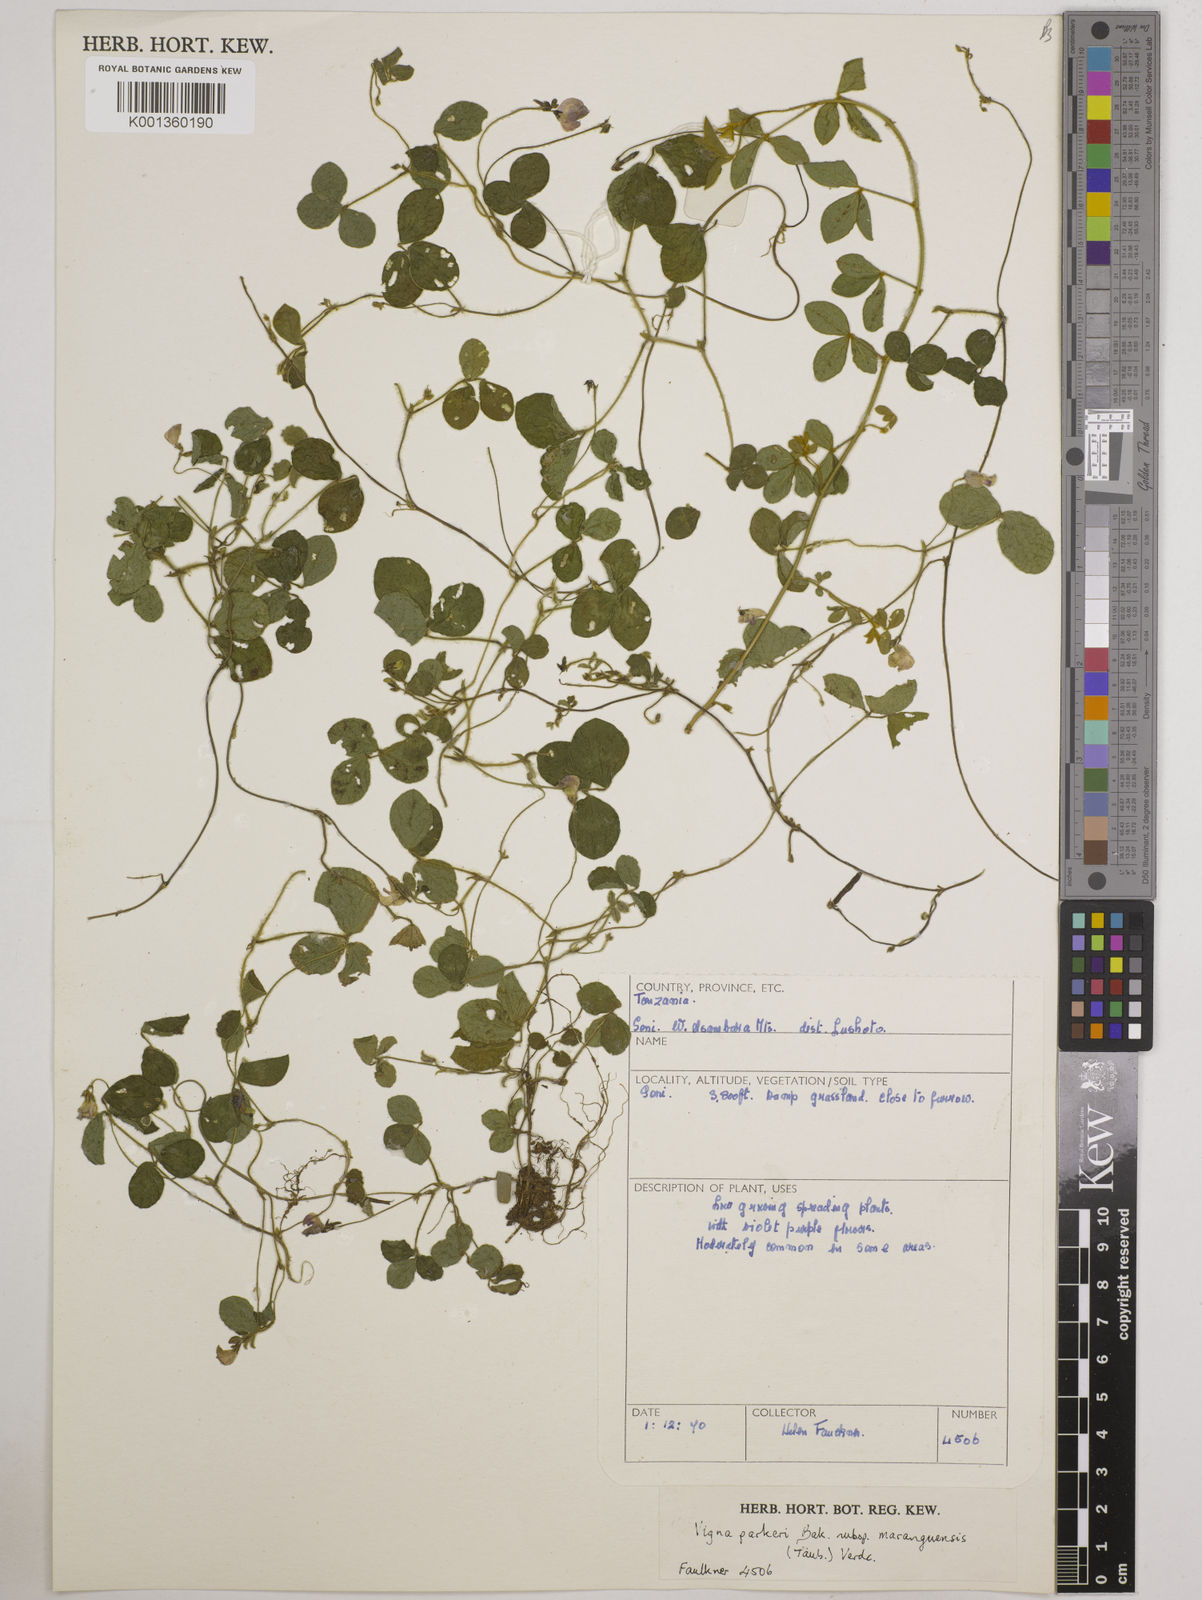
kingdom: Plantae
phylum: Tracheophyta
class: Magnoliopsida
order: Fabales
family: Fabaceae
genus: Vigna
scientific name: Vigna
